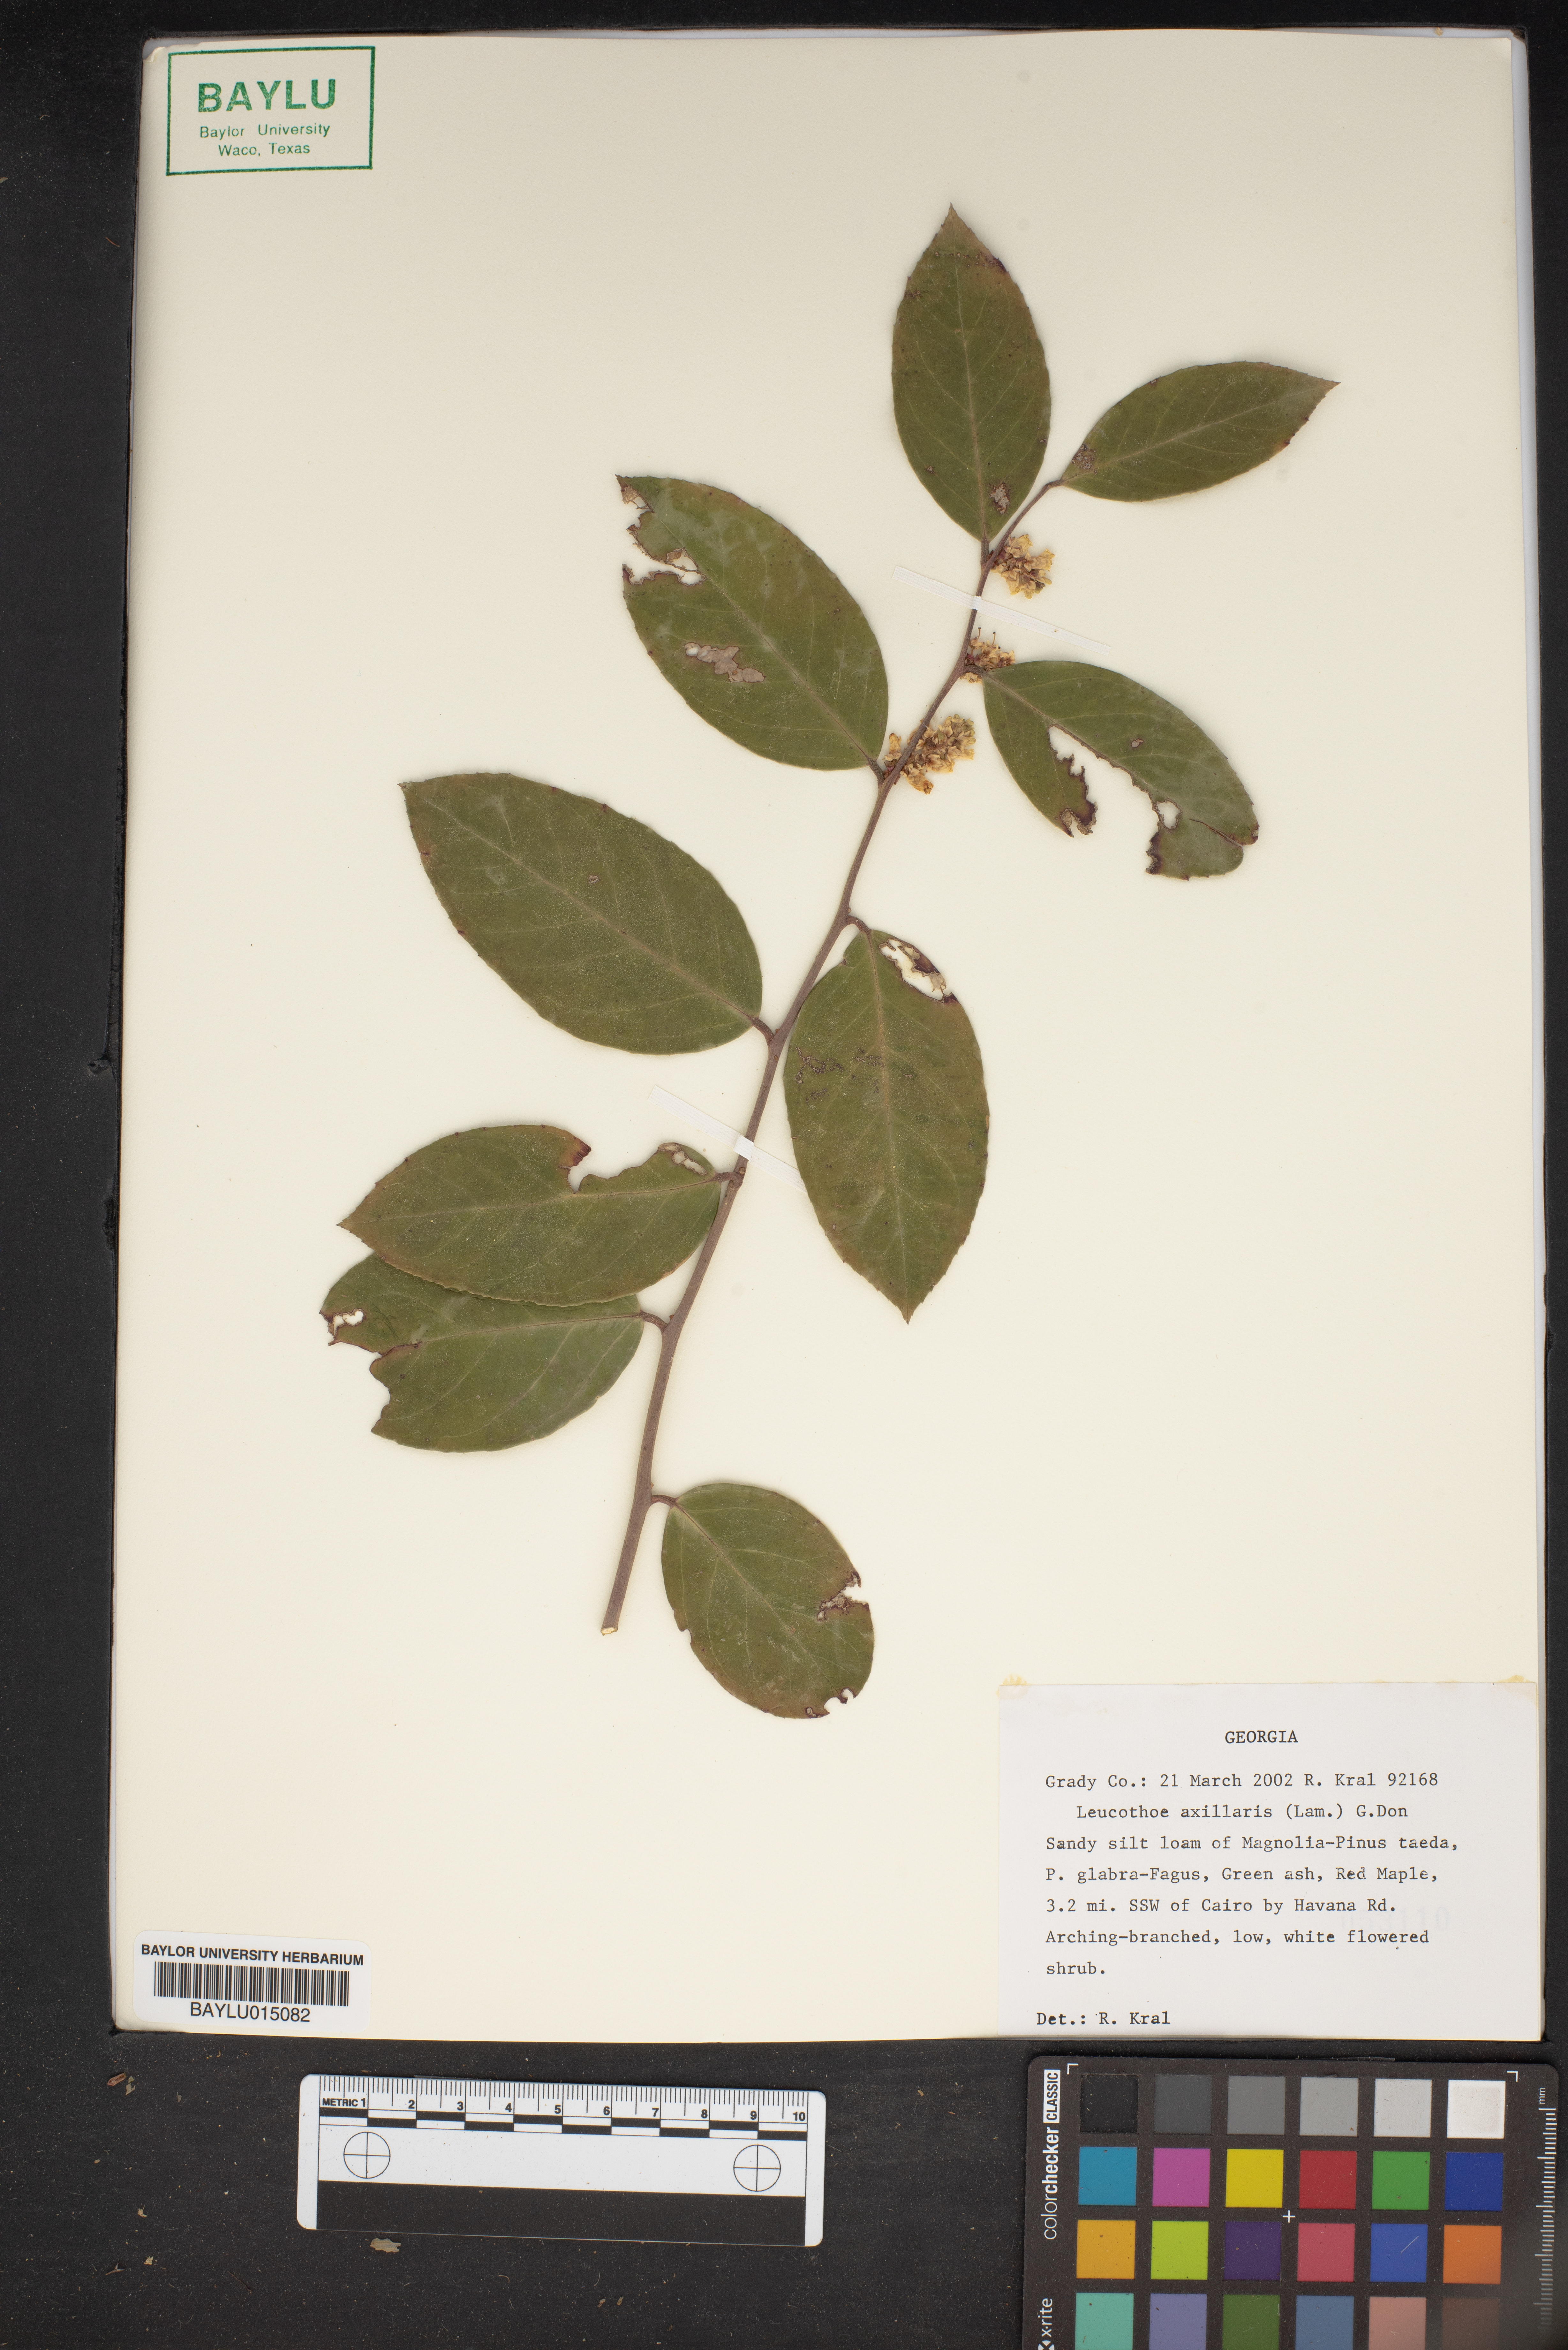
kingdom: Plantae
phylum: Tracheophyta
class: Magnoliopsida
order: Ericales
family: Ericaceae
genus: Leucothoe
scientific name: Leucothoe axillaris
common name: Leucothoe
